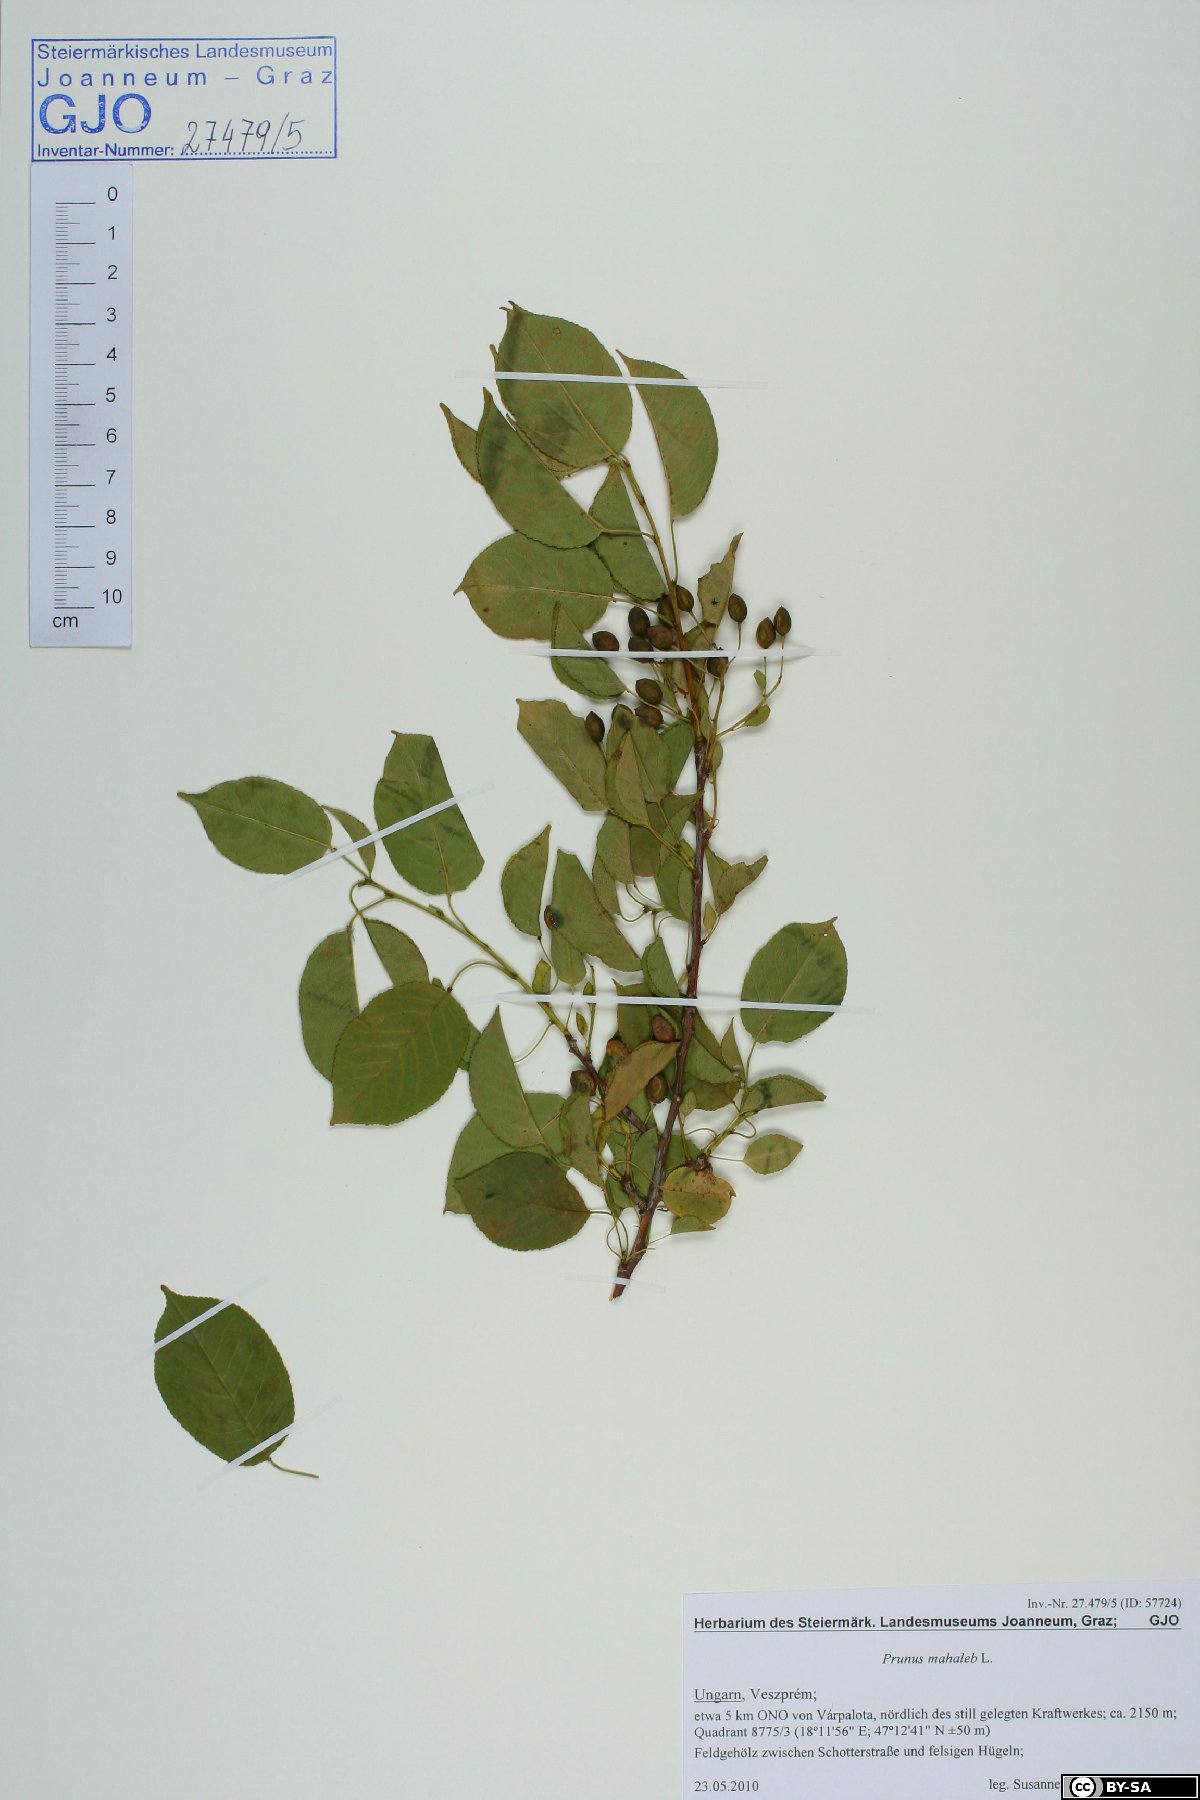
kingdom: Plantae
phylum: Tracheophyta
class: Magnoliopsida
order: Rosales
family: Rosaceae
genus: Prunus
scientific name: Prunus mahaleb
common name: Mahaleb cherry
